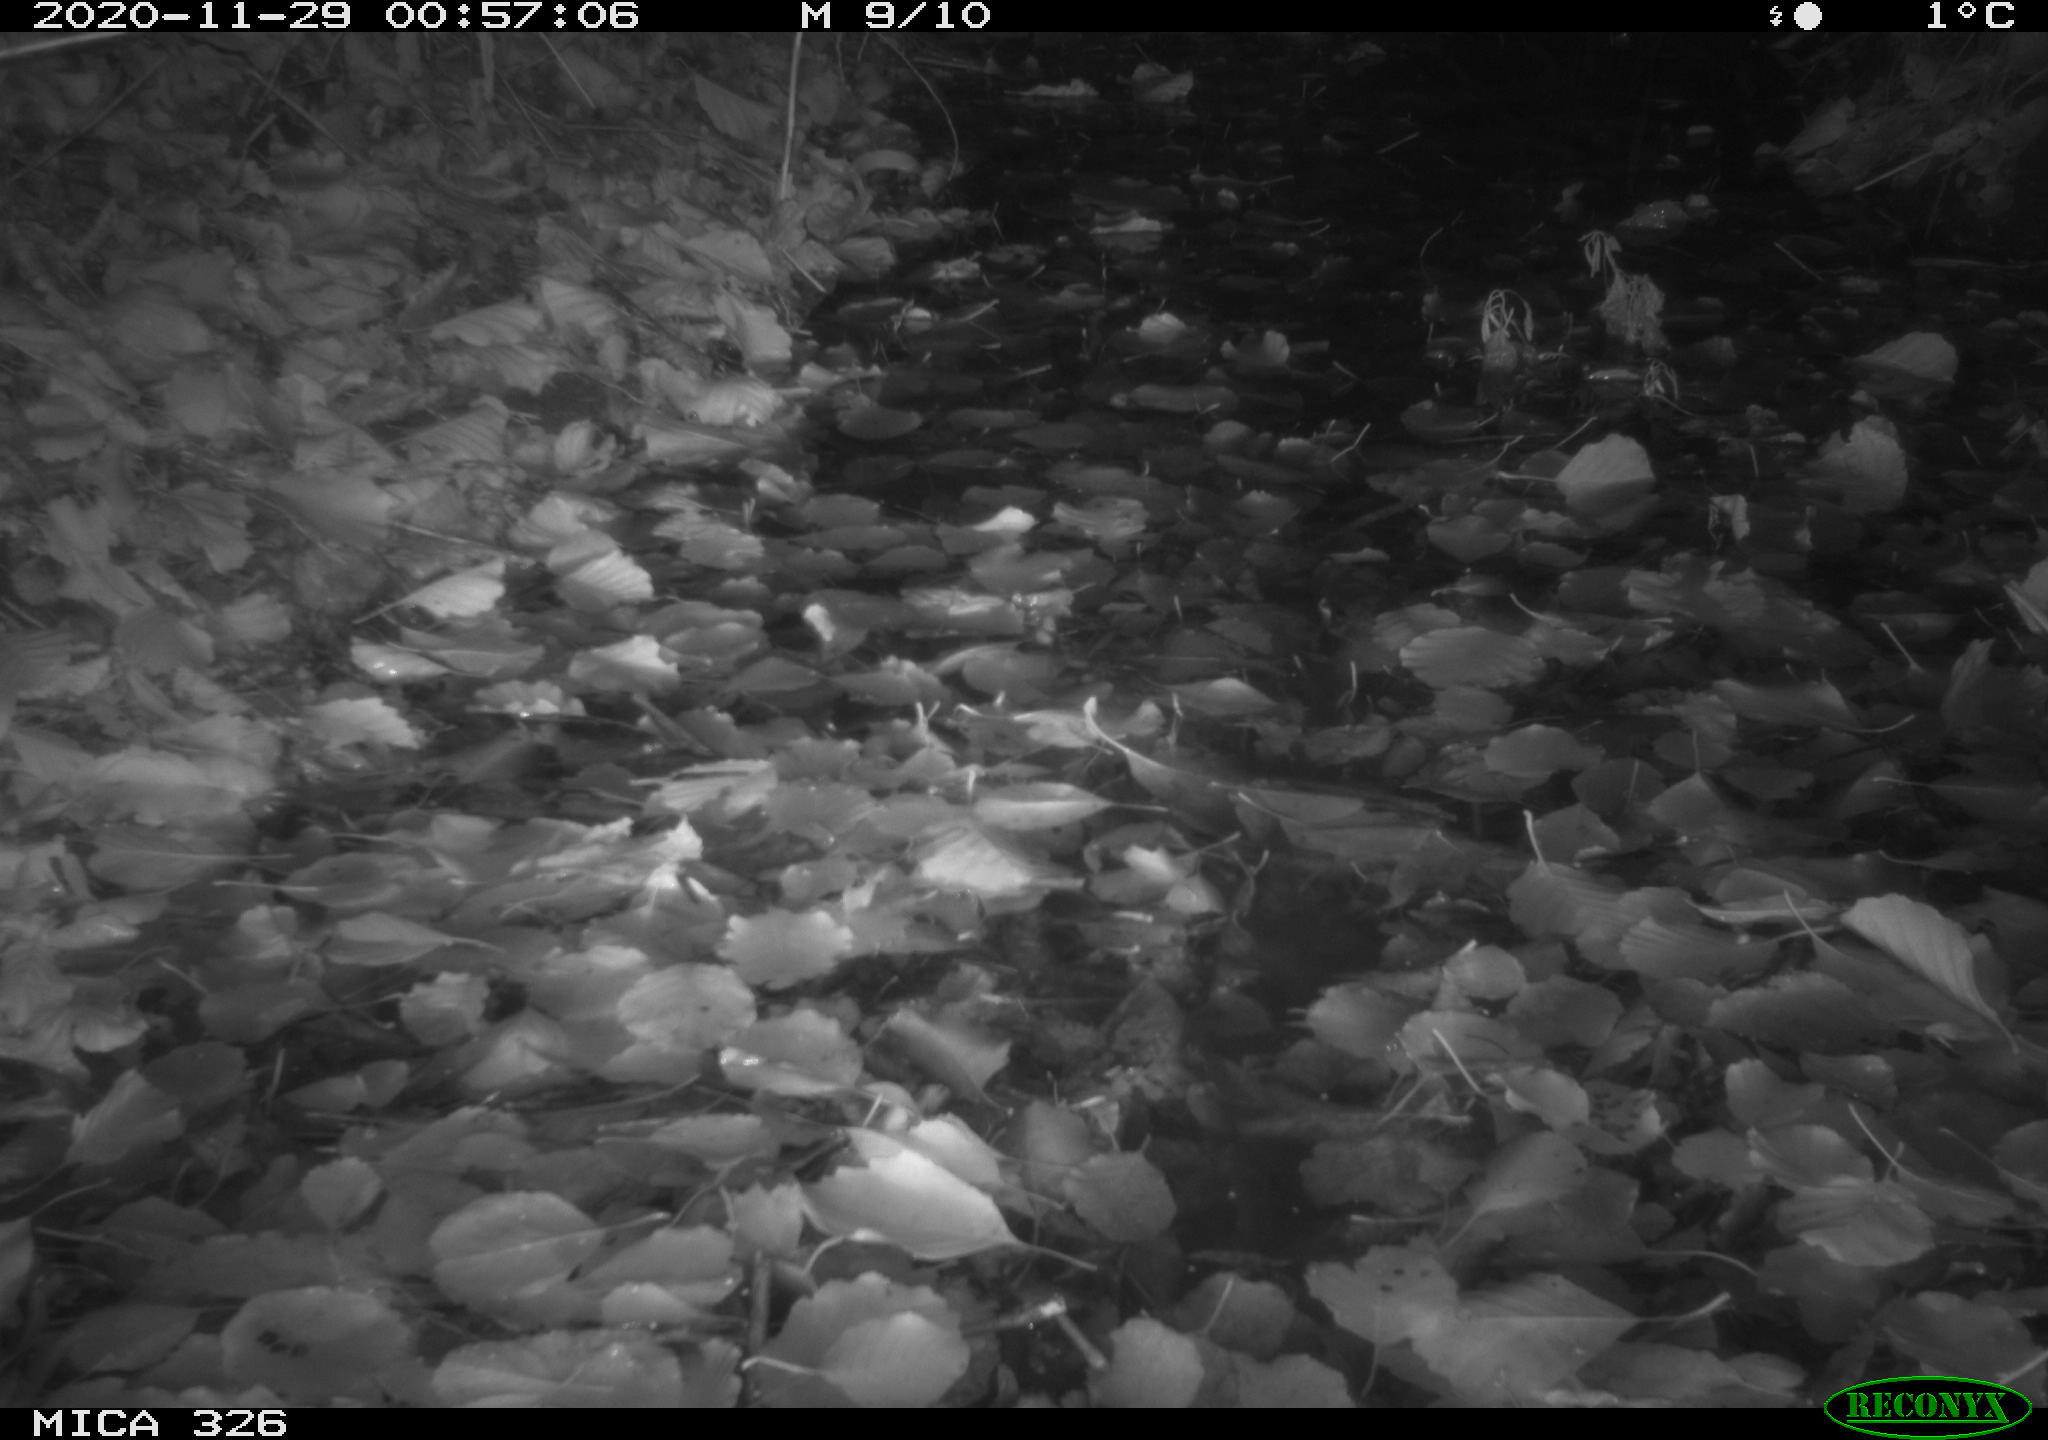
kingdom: Animalia
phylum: Chordata
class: Mammalia
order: Carnivora
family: Mustelidae
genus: Lutra
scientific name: Lutra lutra
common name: European otter
